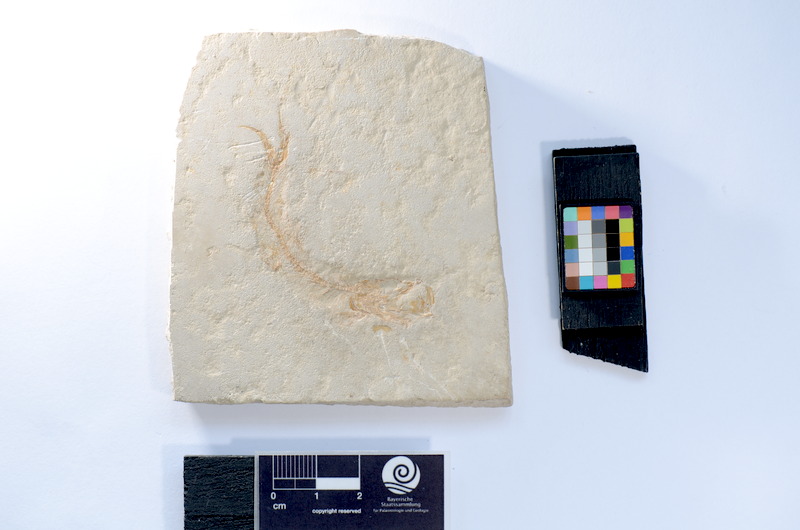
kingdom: Animalia
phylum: Chordata
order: Salmoniformes
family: Orthogonikleithridae
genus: Leptolepides
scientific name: Leptolepides sprattiformis
